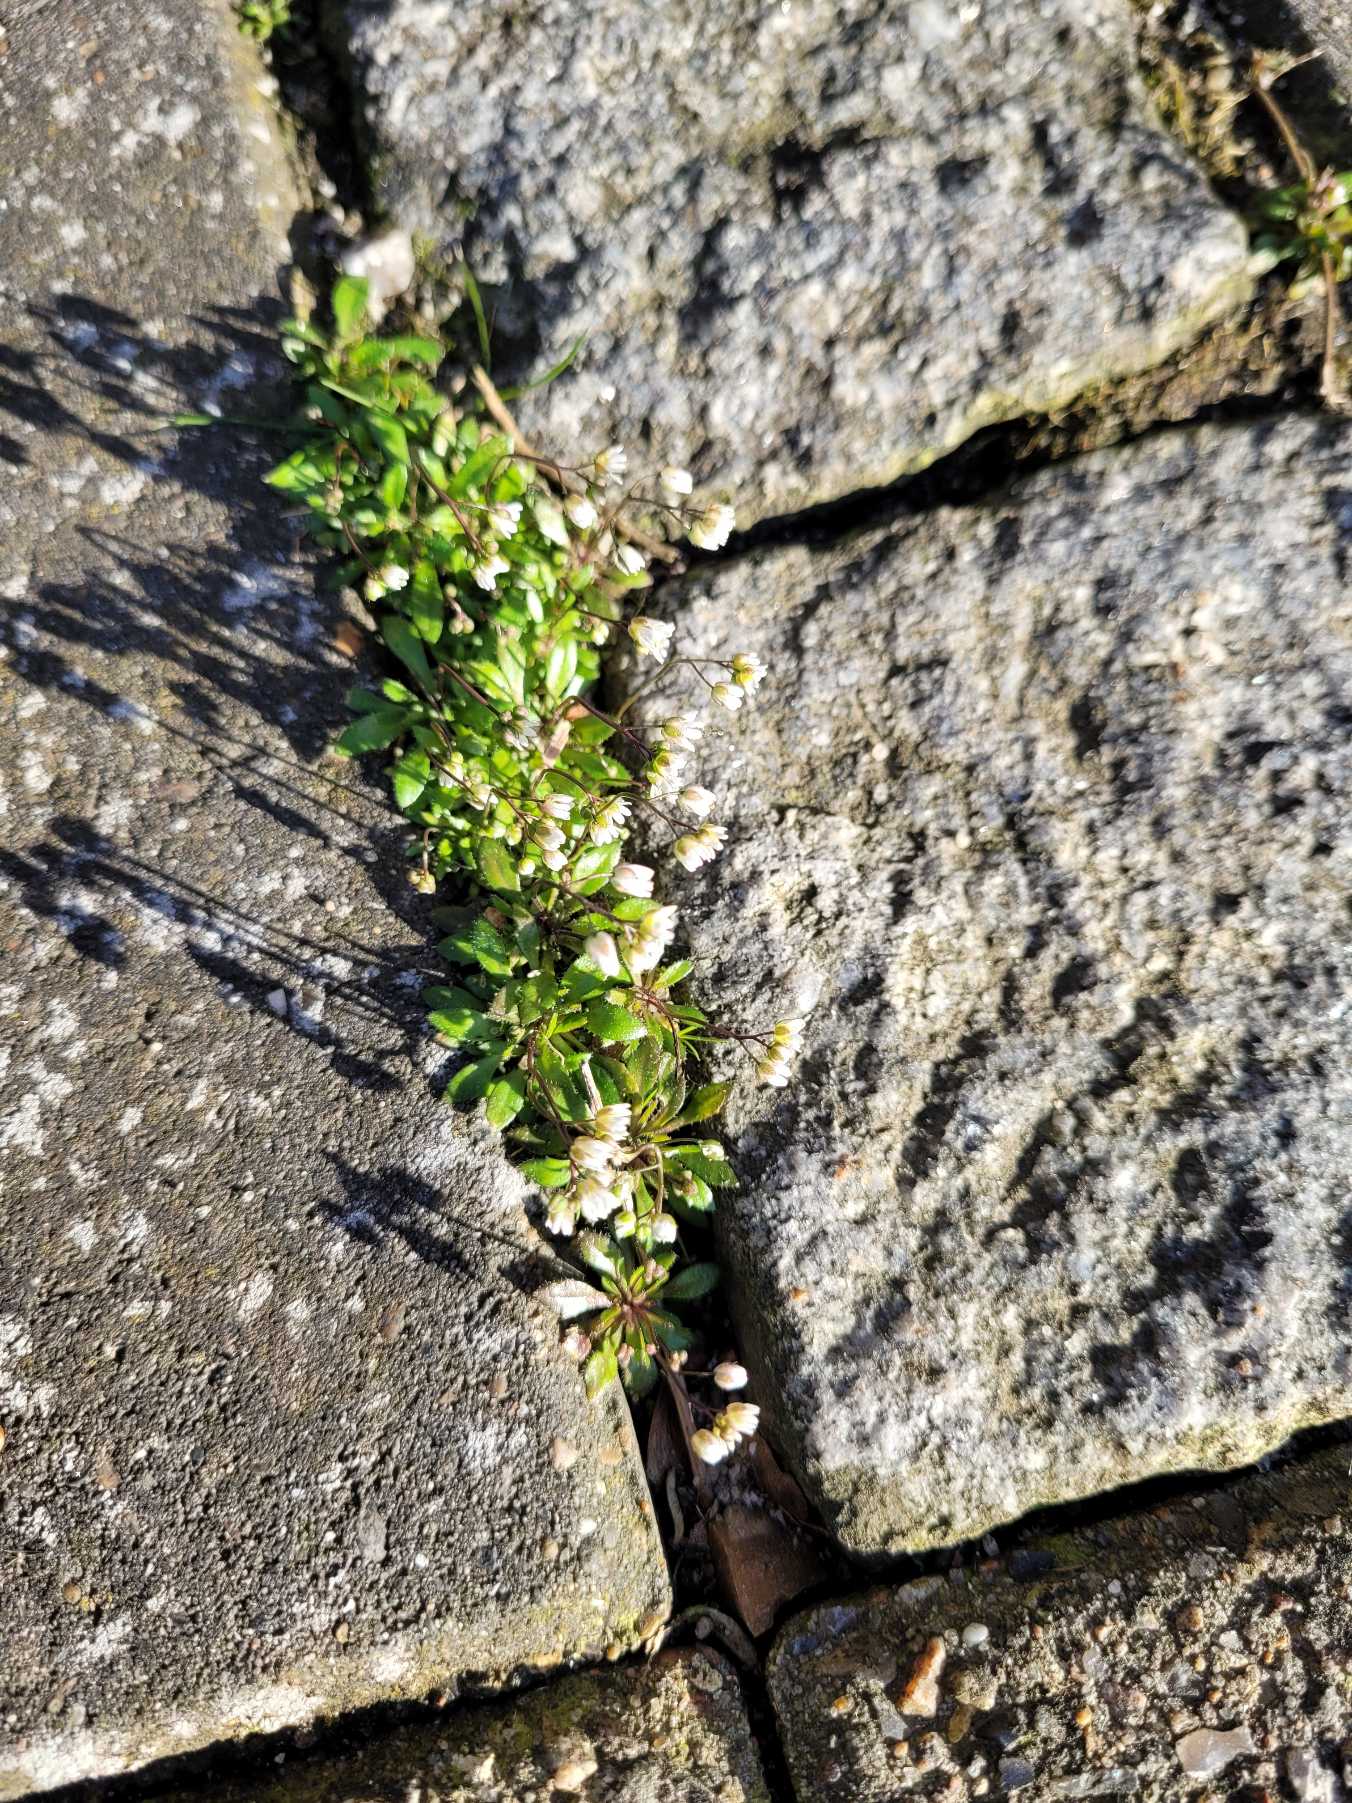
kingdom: Plantae
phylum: Tracheophyta
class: Magnoliopsida
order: Brassicales
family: Brassicaceae
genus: Draba
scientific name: Draba verna
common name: Vår-gæslingeblomst
